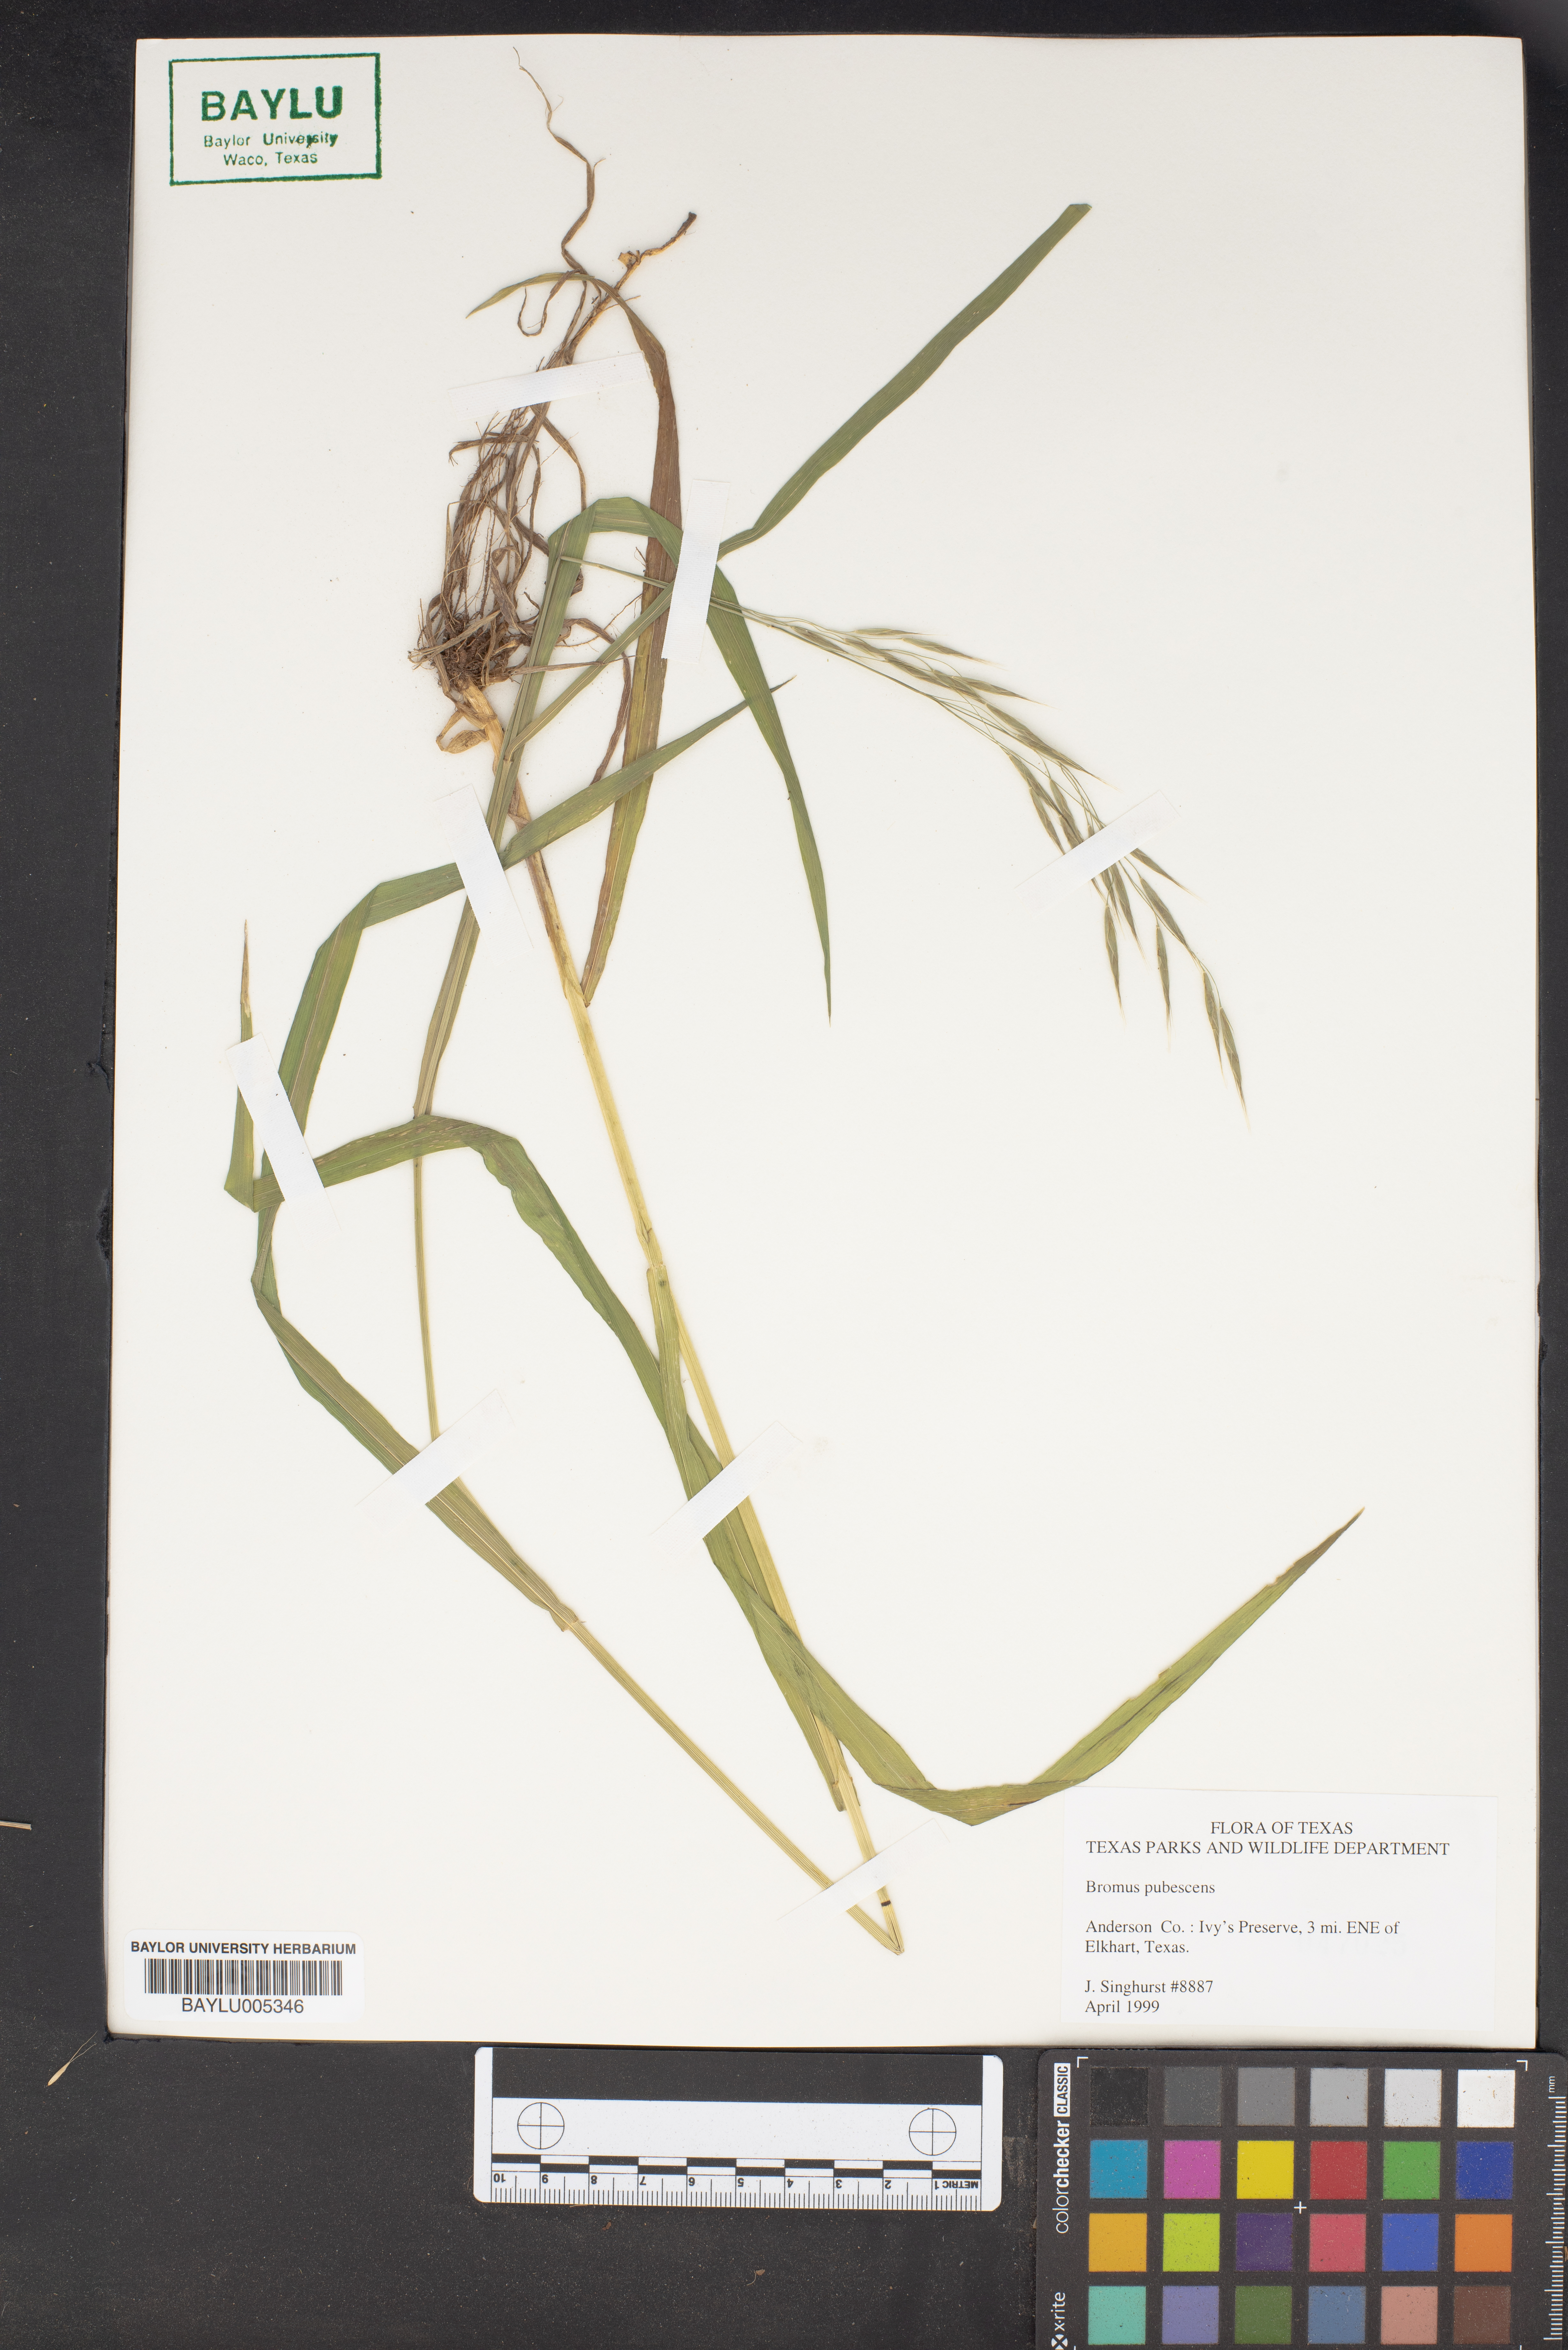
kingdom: Plantae
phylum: Tracheophyta
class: Liliopsida
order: Poales
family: Poaceae
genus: Bromus
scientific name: Bromus pubescens
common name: Hairy wood brome grass
